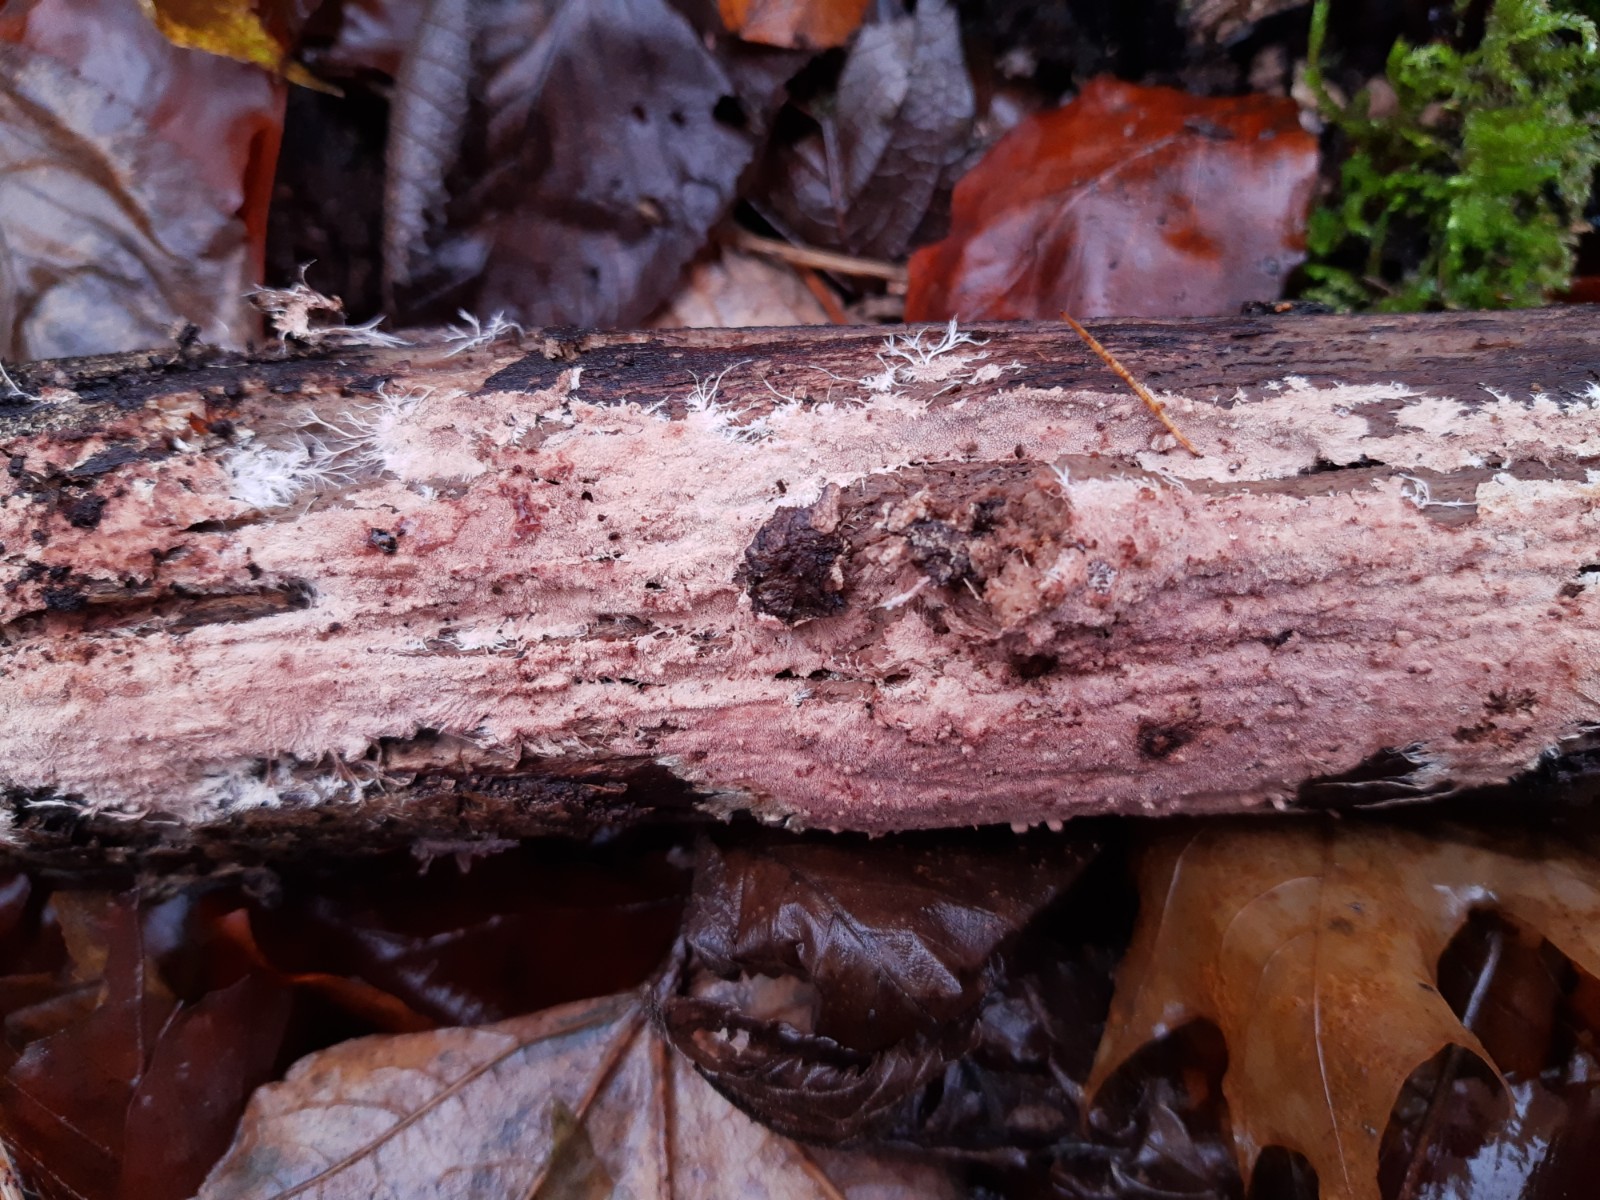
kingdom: Fungi
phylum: Basidiomycota
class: Agaricomycetes
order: Polyporales
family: Steccherinaceae
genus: Steccherinum
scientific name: Steccherinum fimbriatum
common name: trådet skønpig
